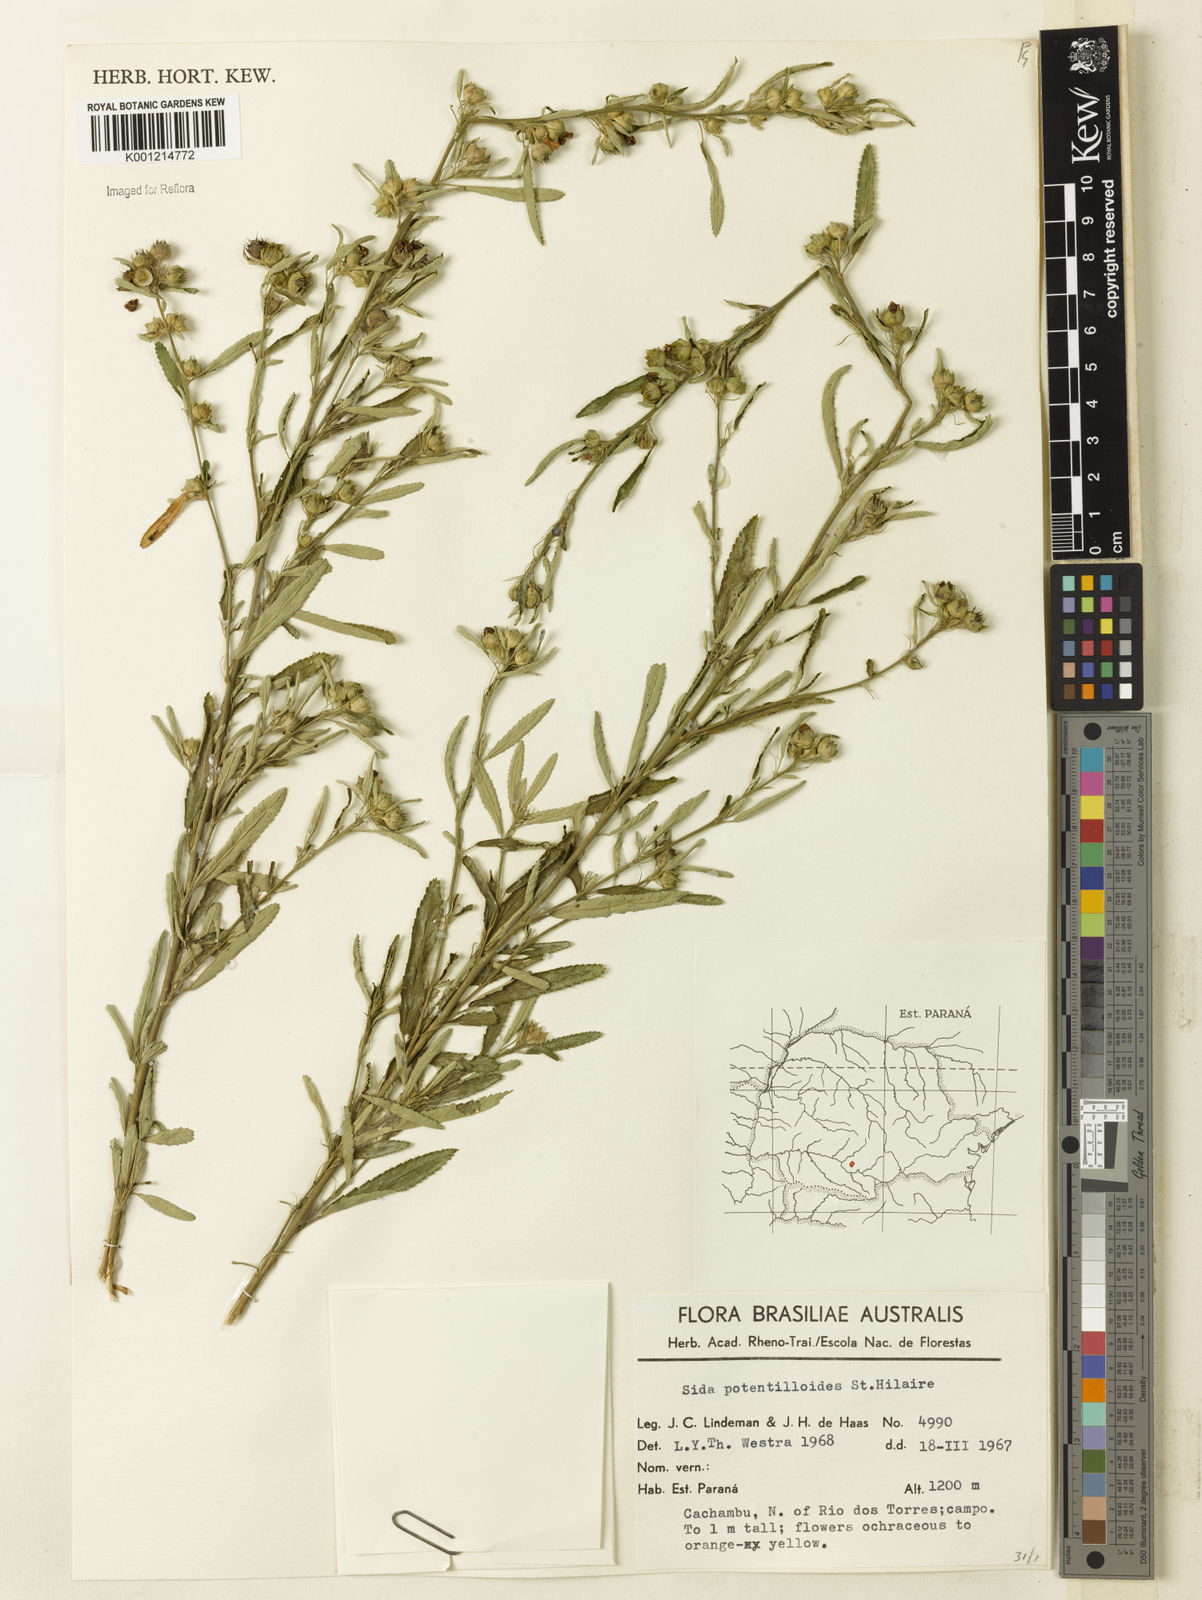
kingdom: Plantae
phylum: Tracheophyta
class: Magnoliopsida
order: Malvales
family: Malvaceae
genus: Sida
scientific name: Sida potentilloides
